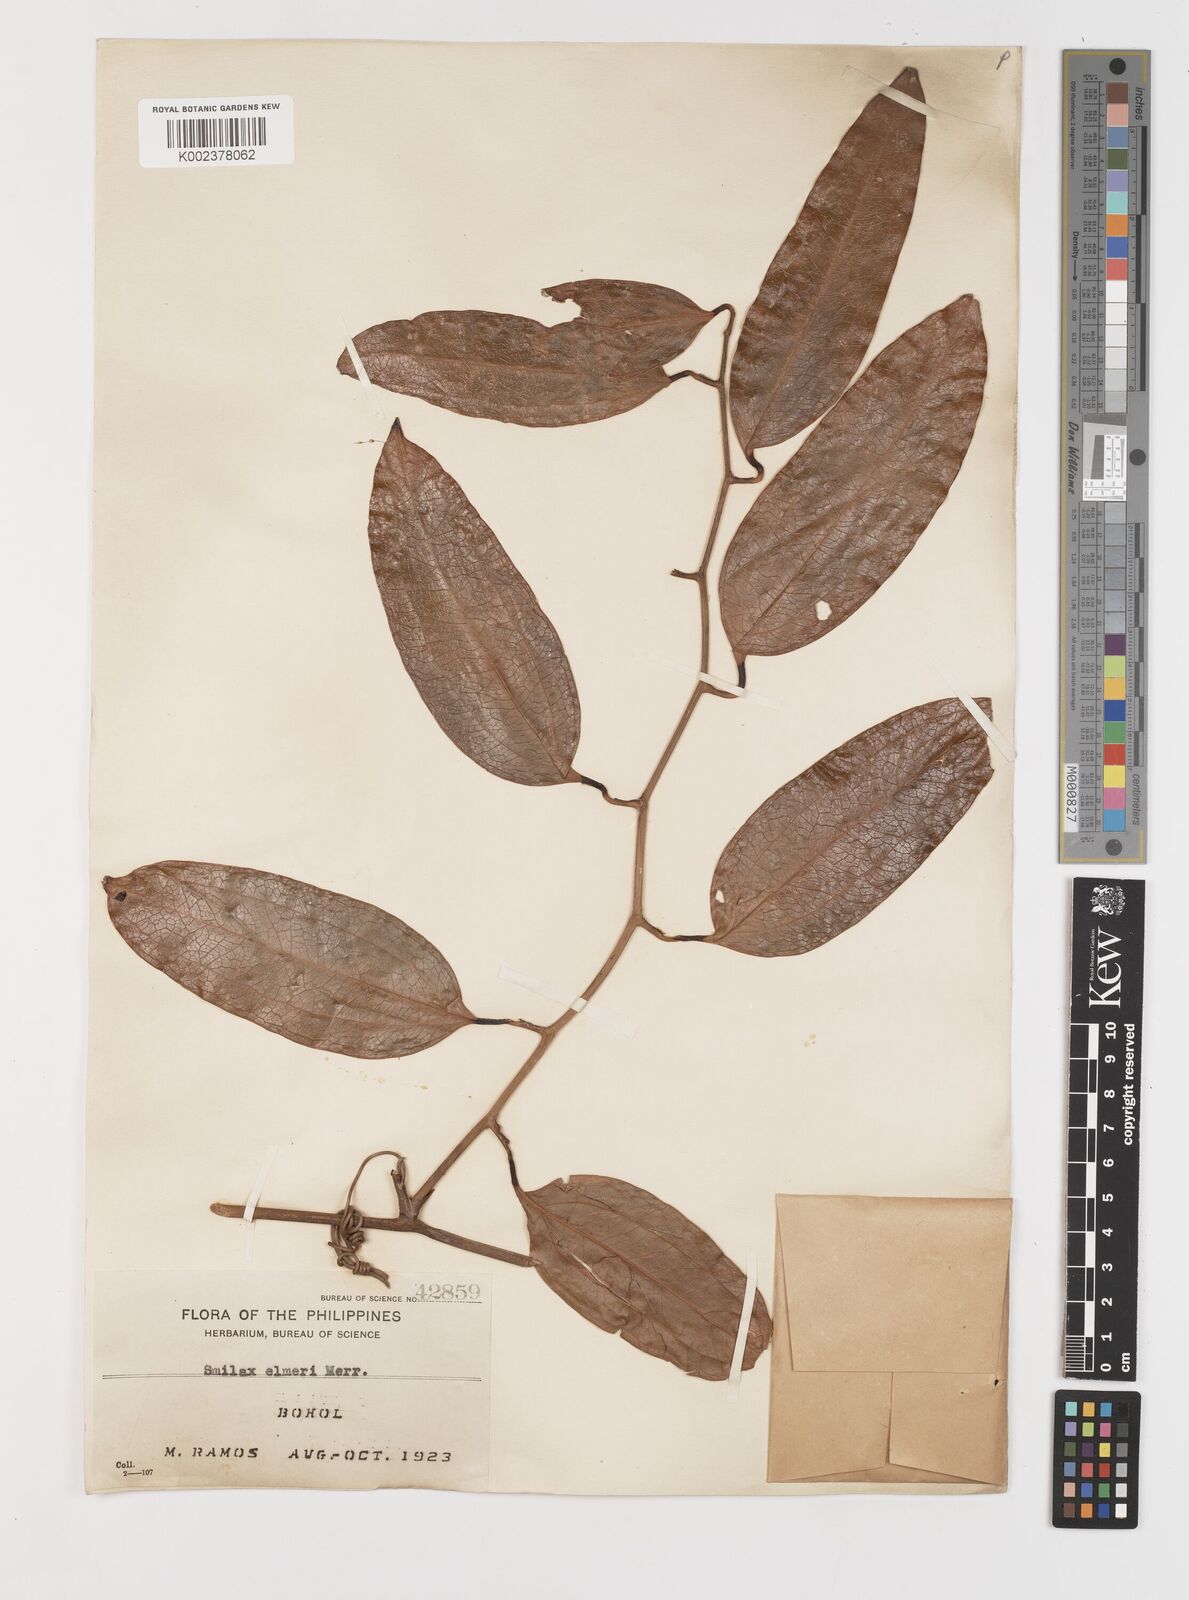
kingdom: Plantae
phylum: Tracheophyta
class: Liliopsida
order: Liliales
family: Smilacaceae
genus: Smilax
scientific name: Smilax elmeri
